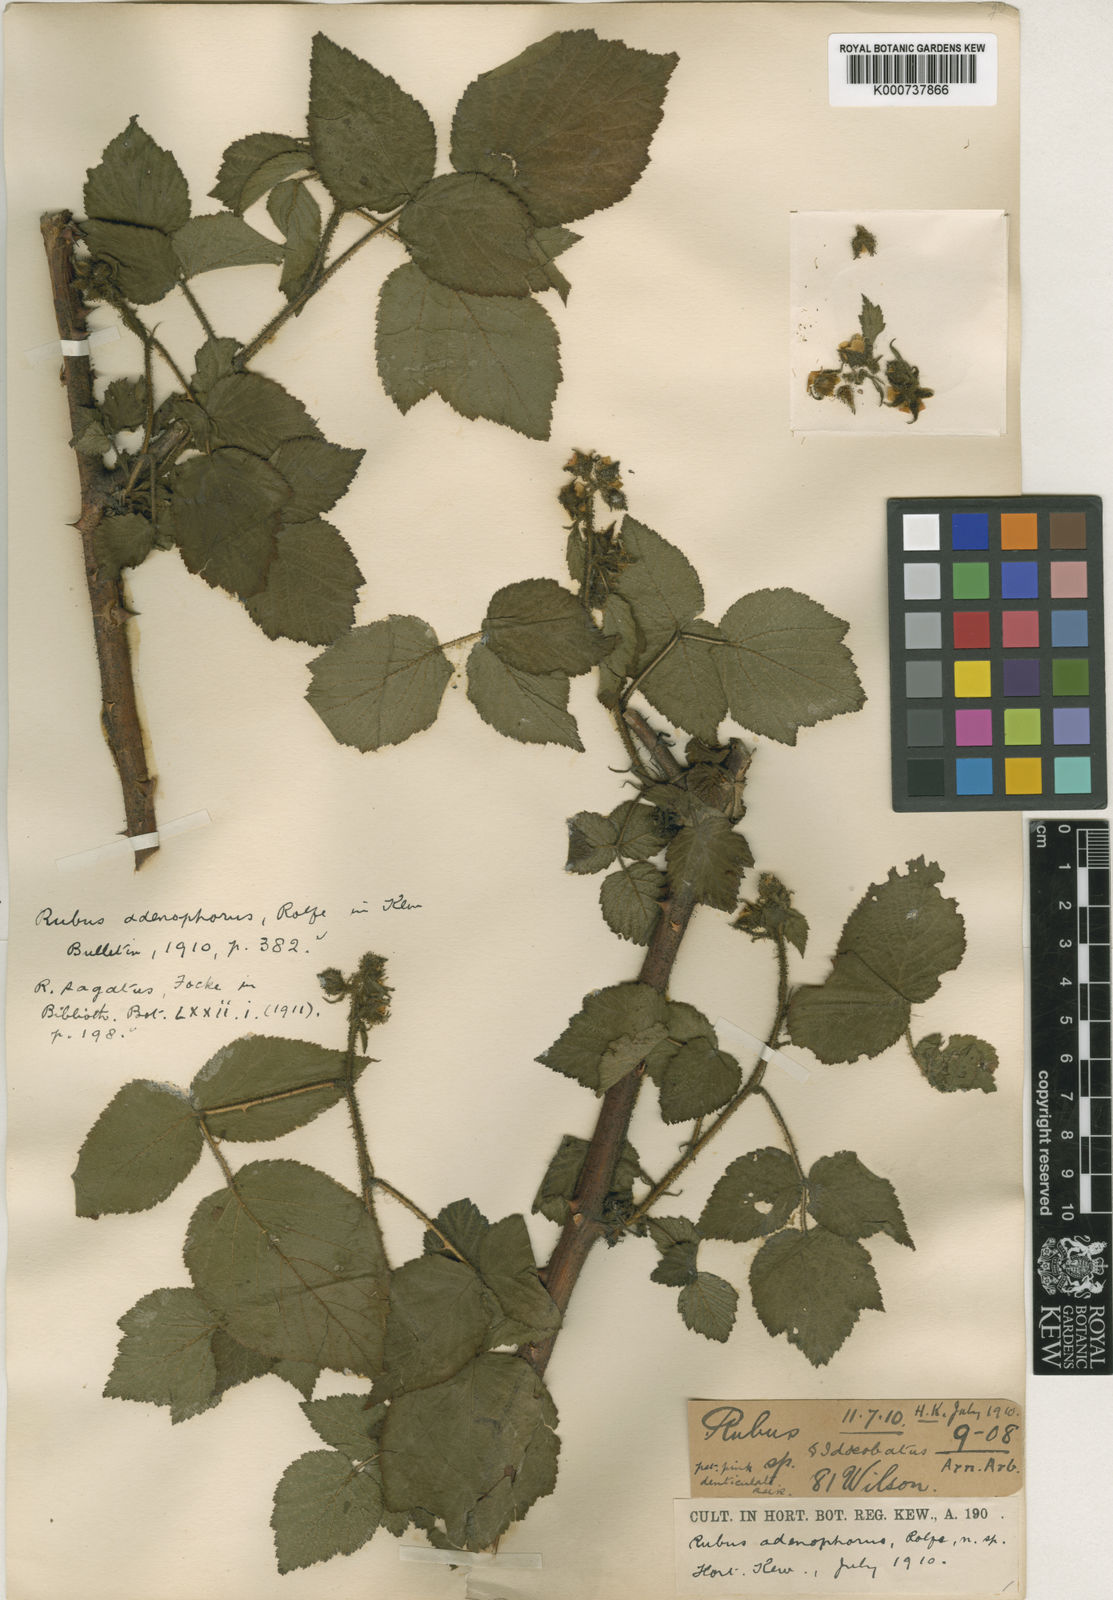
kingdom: Plantae
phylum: Tracheophyta
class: Magnoliopsida
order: Rosales
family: Rosaceae
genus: Rubus
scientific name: Rubus adenophorus
